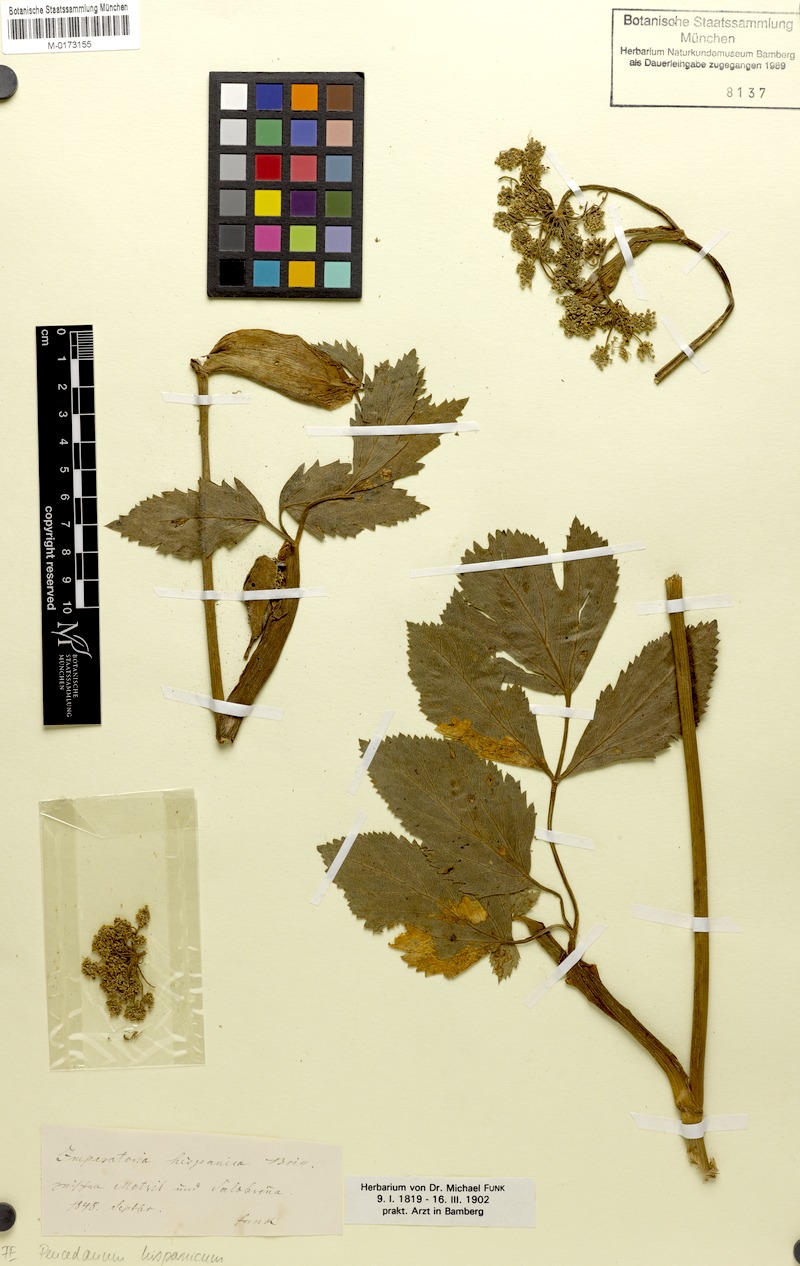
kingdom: Plantae
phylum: Tracheophyta
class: Magnoliopsida
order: Apiales
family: Apiaceae
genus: Peucedanum
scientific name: Peucedanum hispanicum
